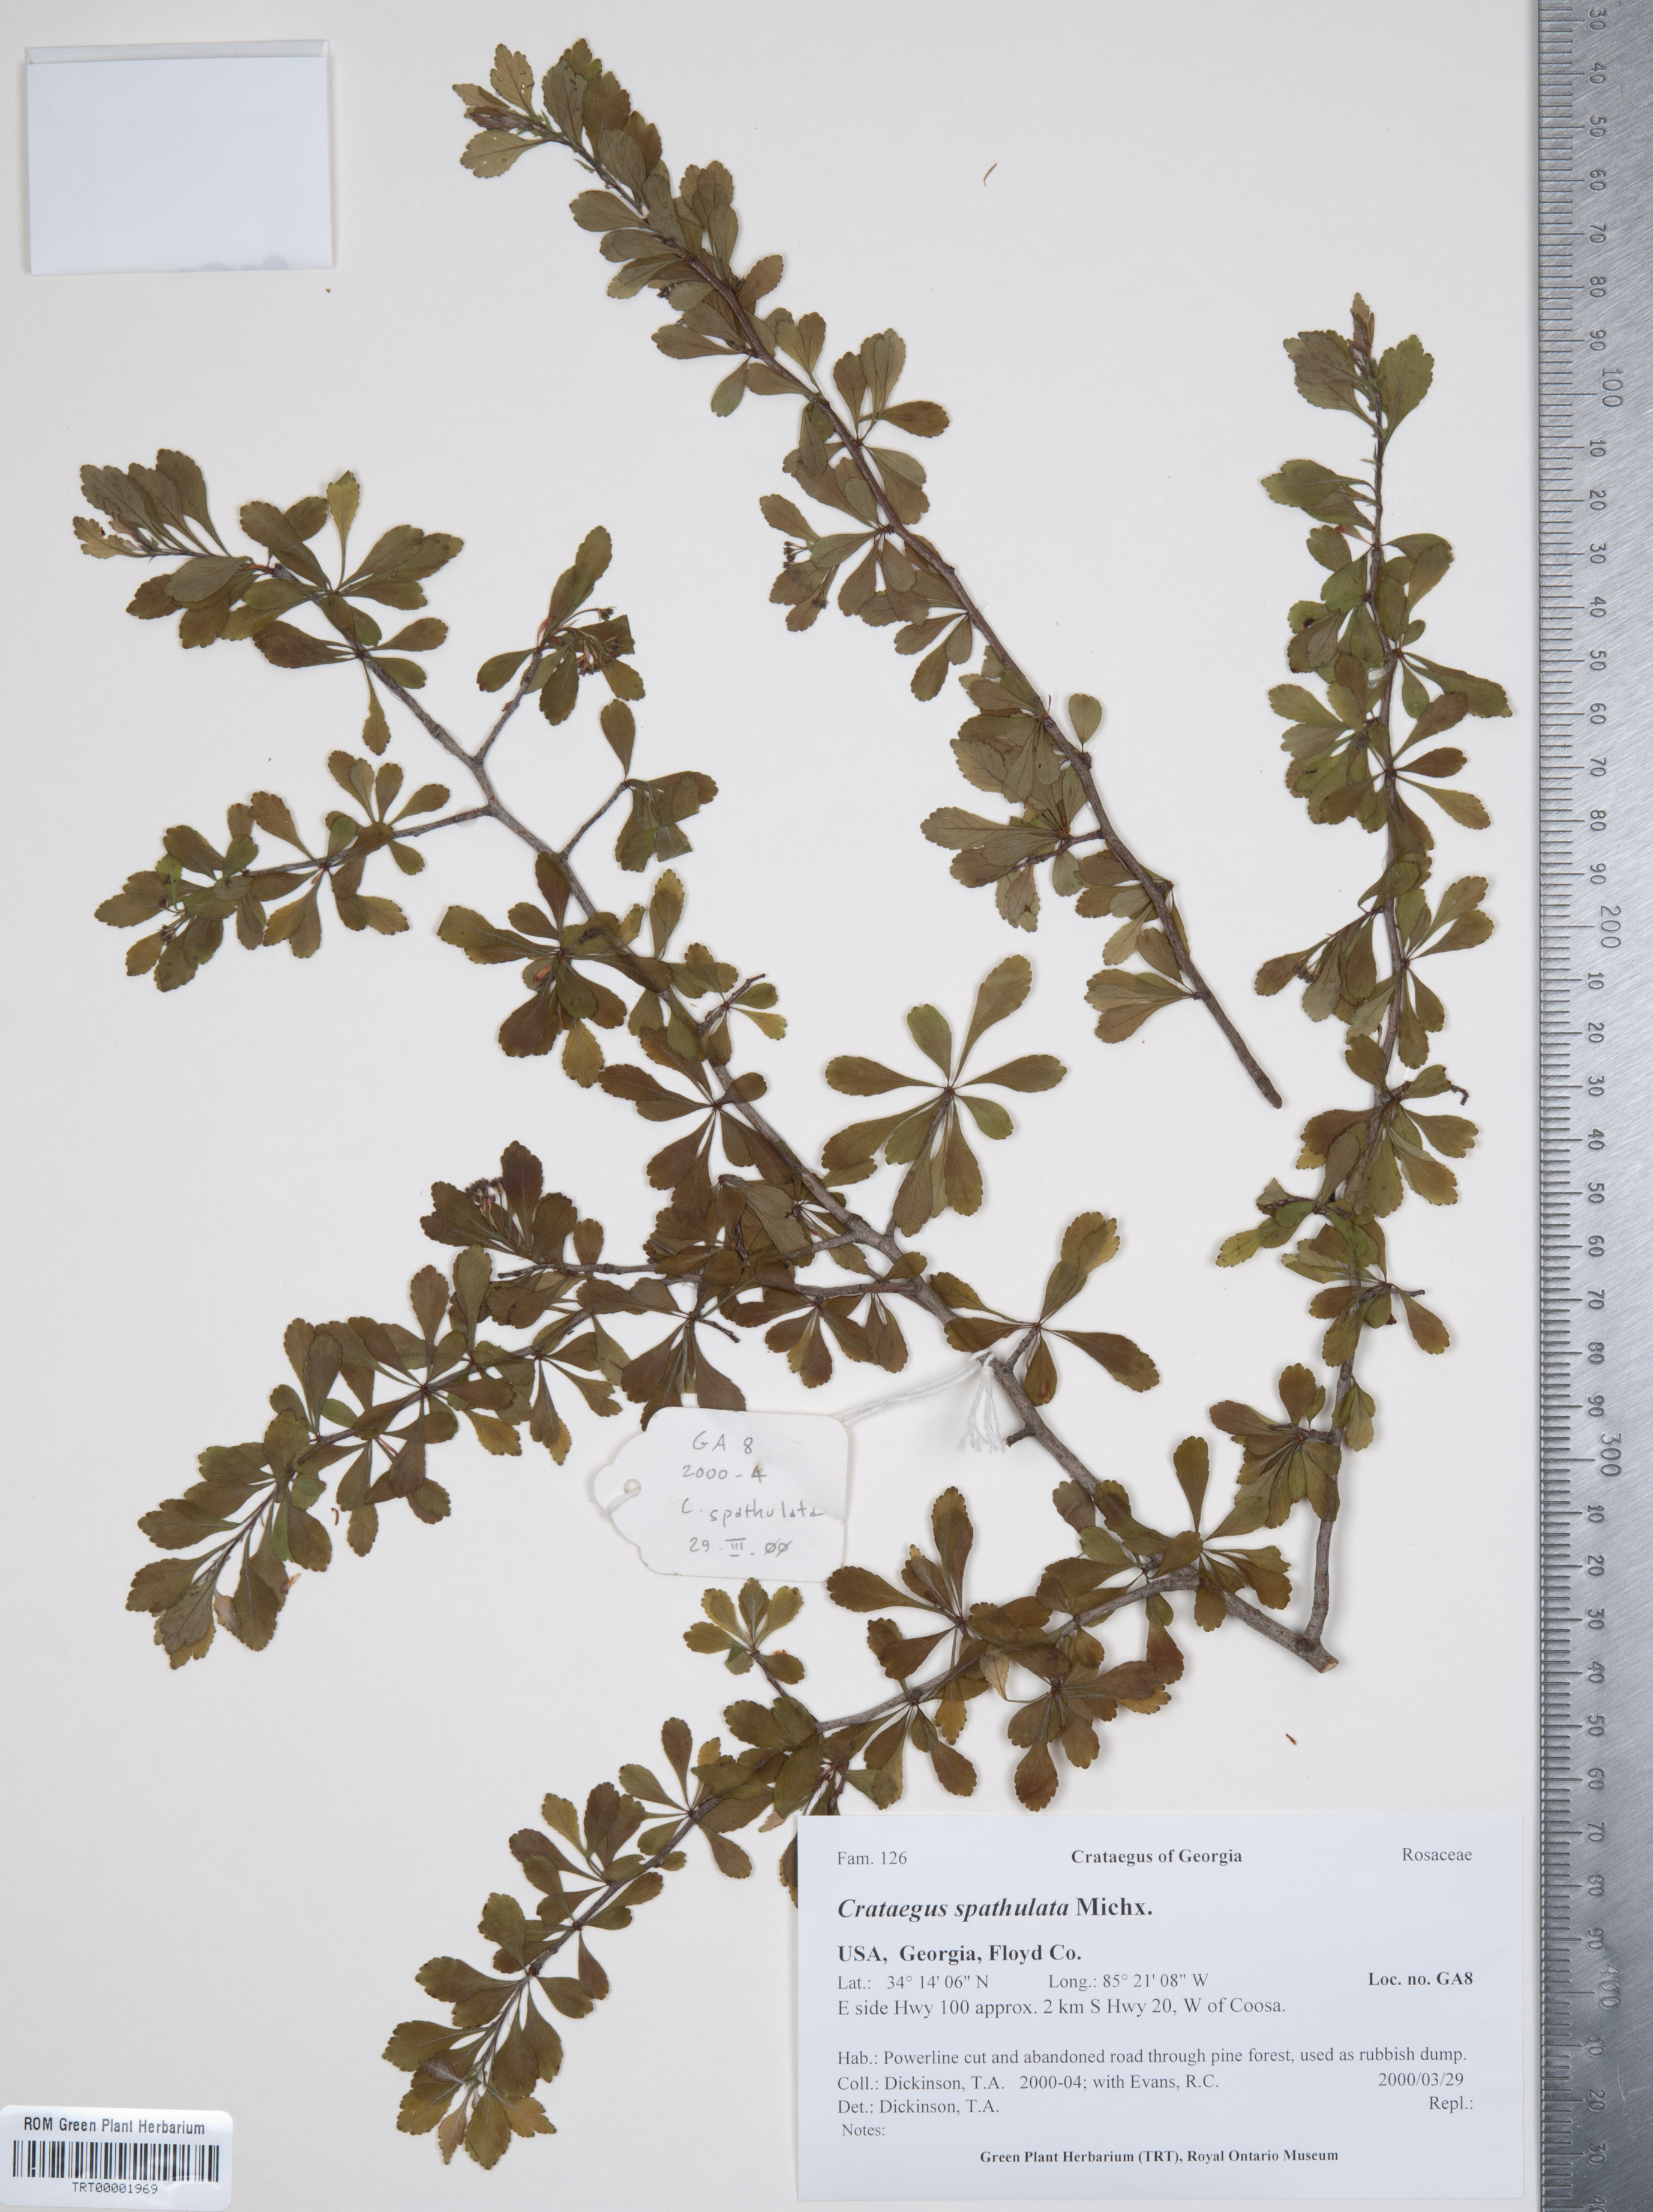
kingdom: Plantae
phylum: Tracheophyta
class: Magnoliopsida
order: Rosales
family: Rosaceae
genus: Crataegus
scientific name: Crataegus spathulata
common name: Littlehip hawthorn
